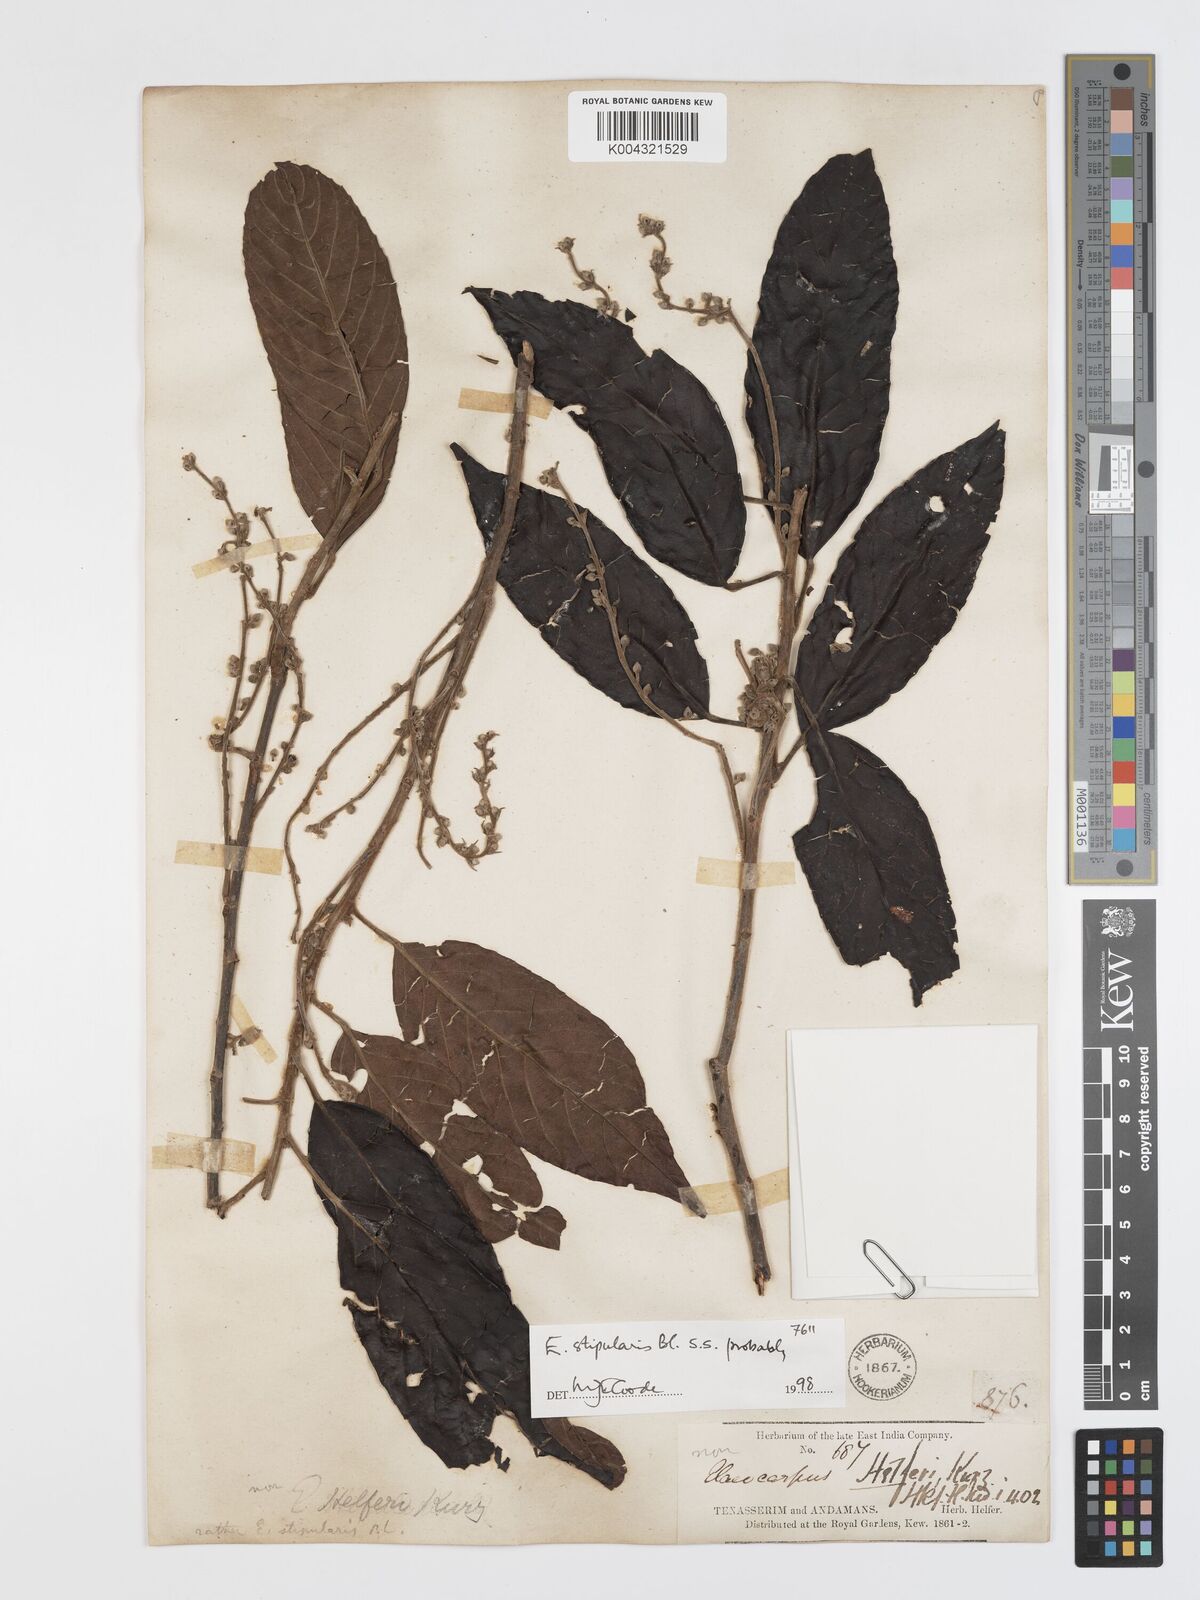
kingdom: Plantae
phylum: Tracheophyta
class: Magnoliopsida
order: Oxalidales
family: Elaeocarpaceae
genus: Elaeocarpus
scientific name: Elaeocarpus stipularis
